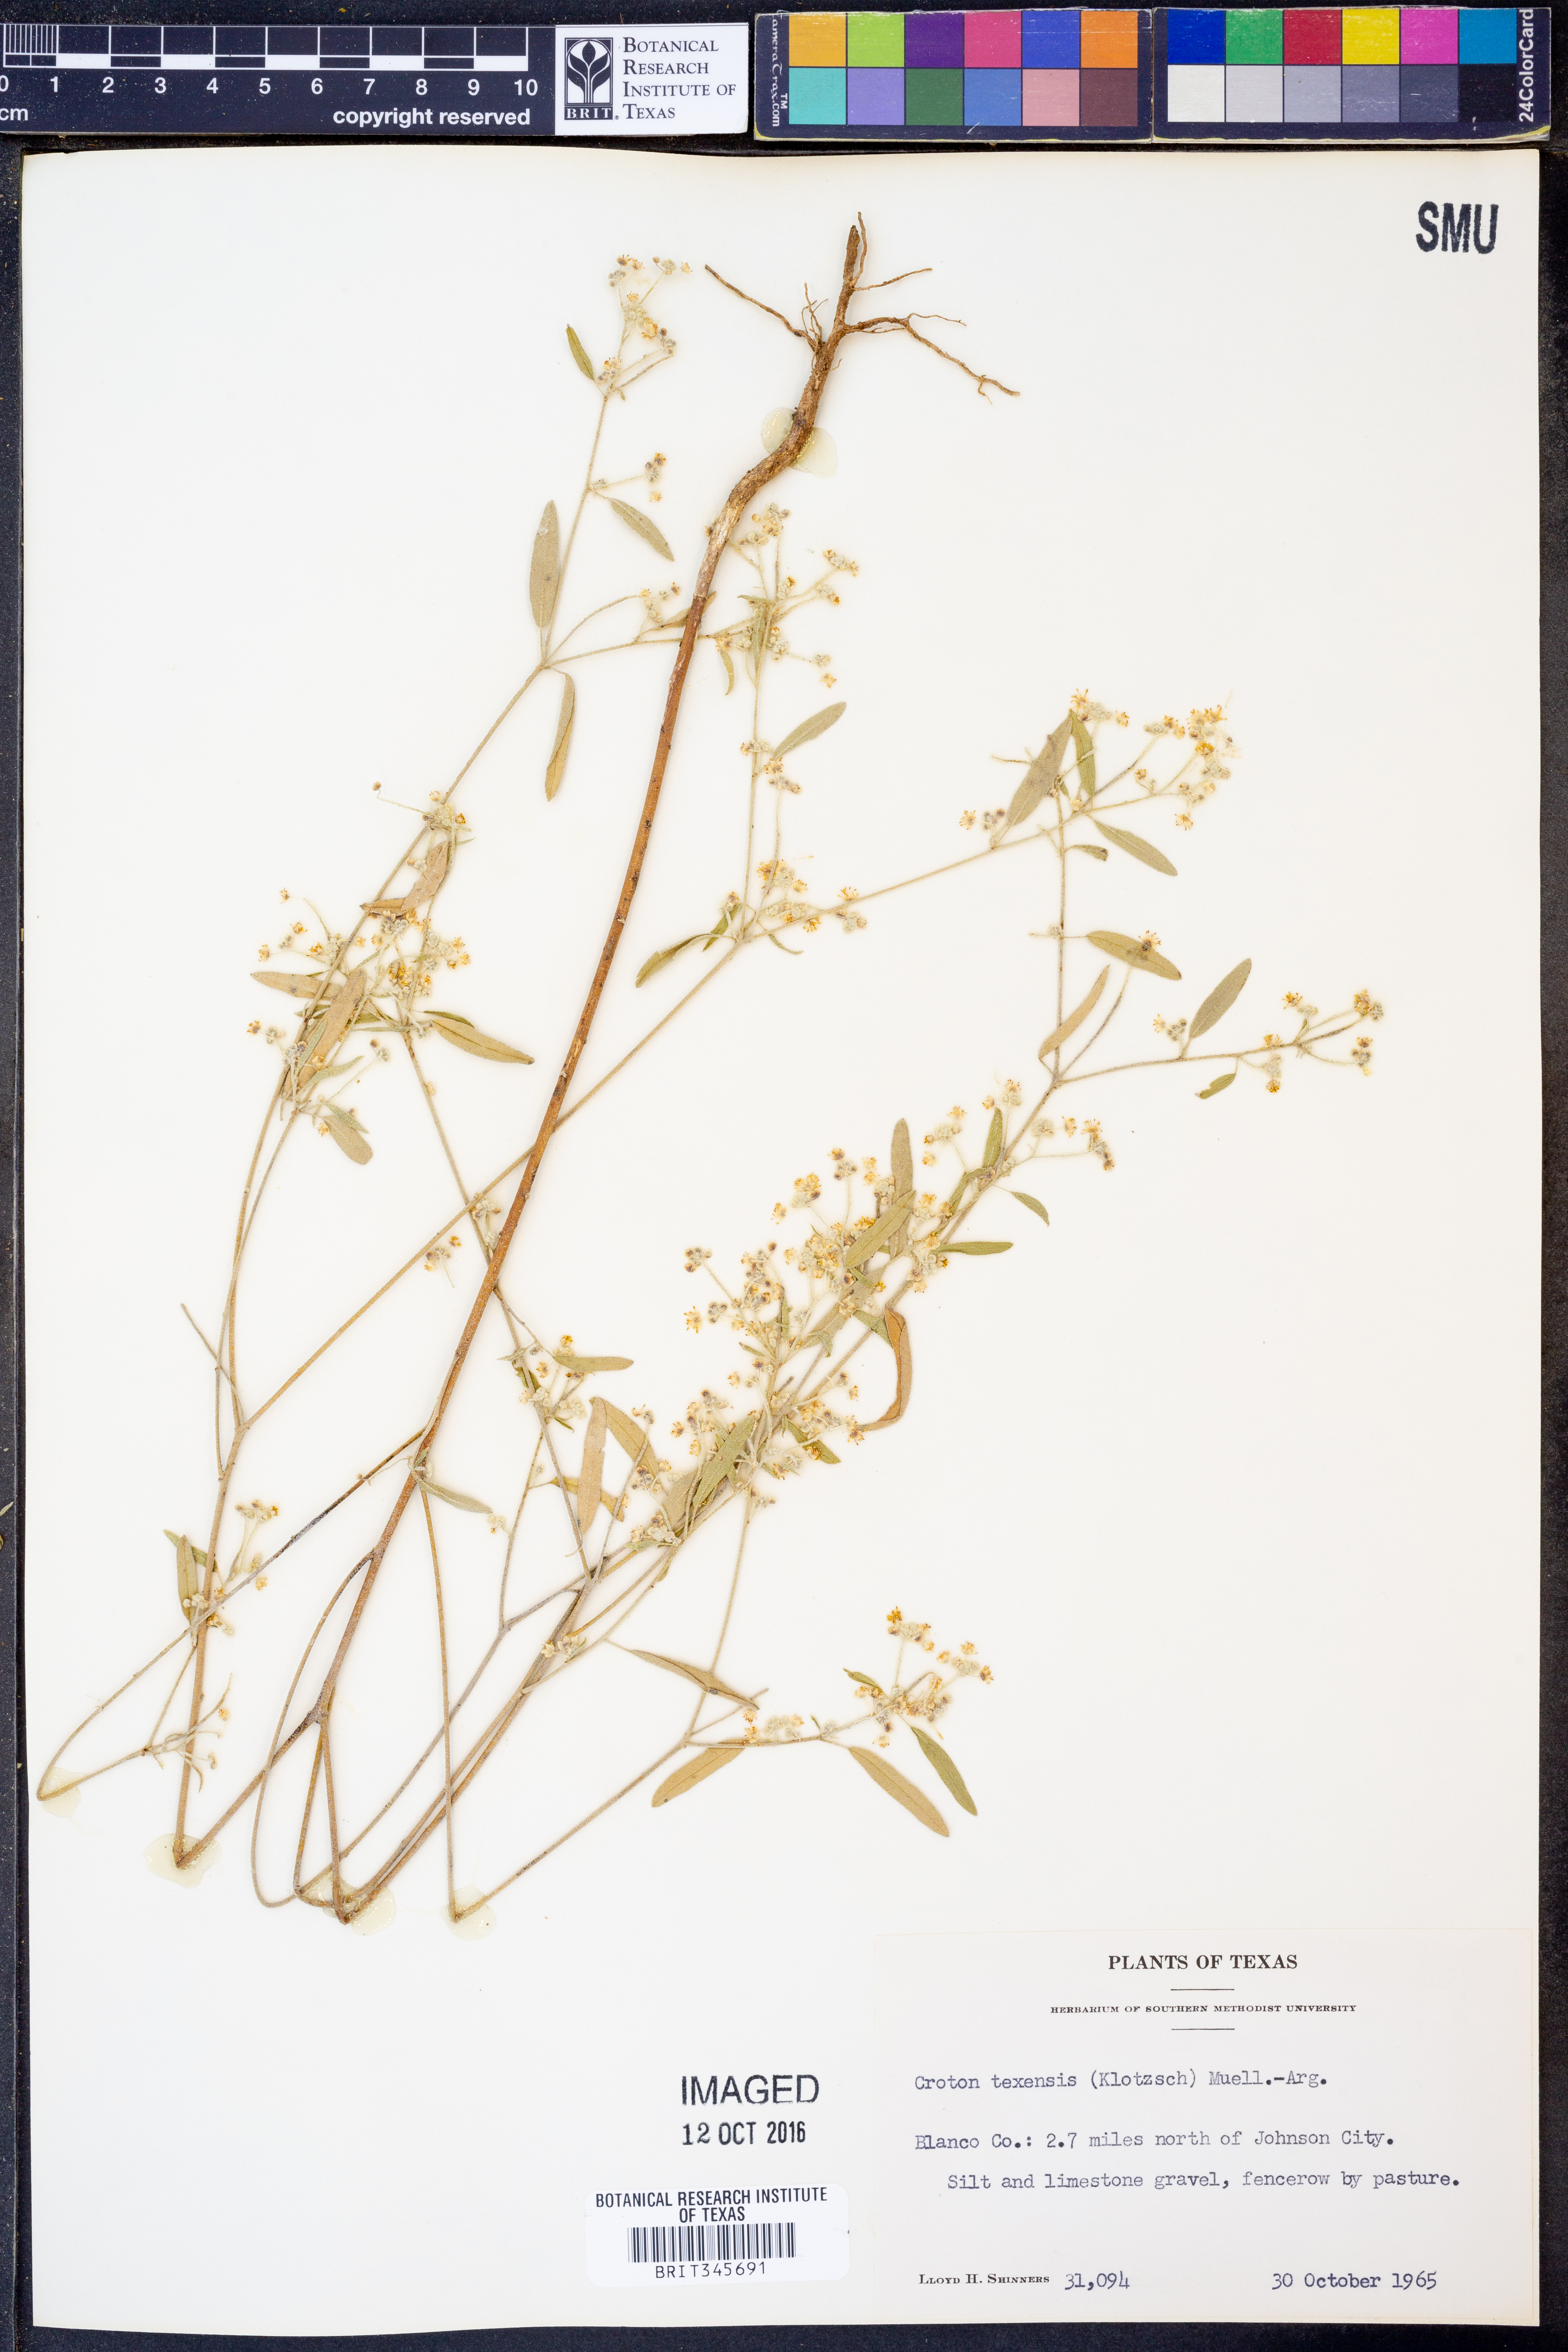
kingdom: Plantae
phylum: Tracheophyta
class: Magnoliopsida
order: Malpighiales
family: Euphorbiaceae
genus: Croton
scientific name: Croton texensis
